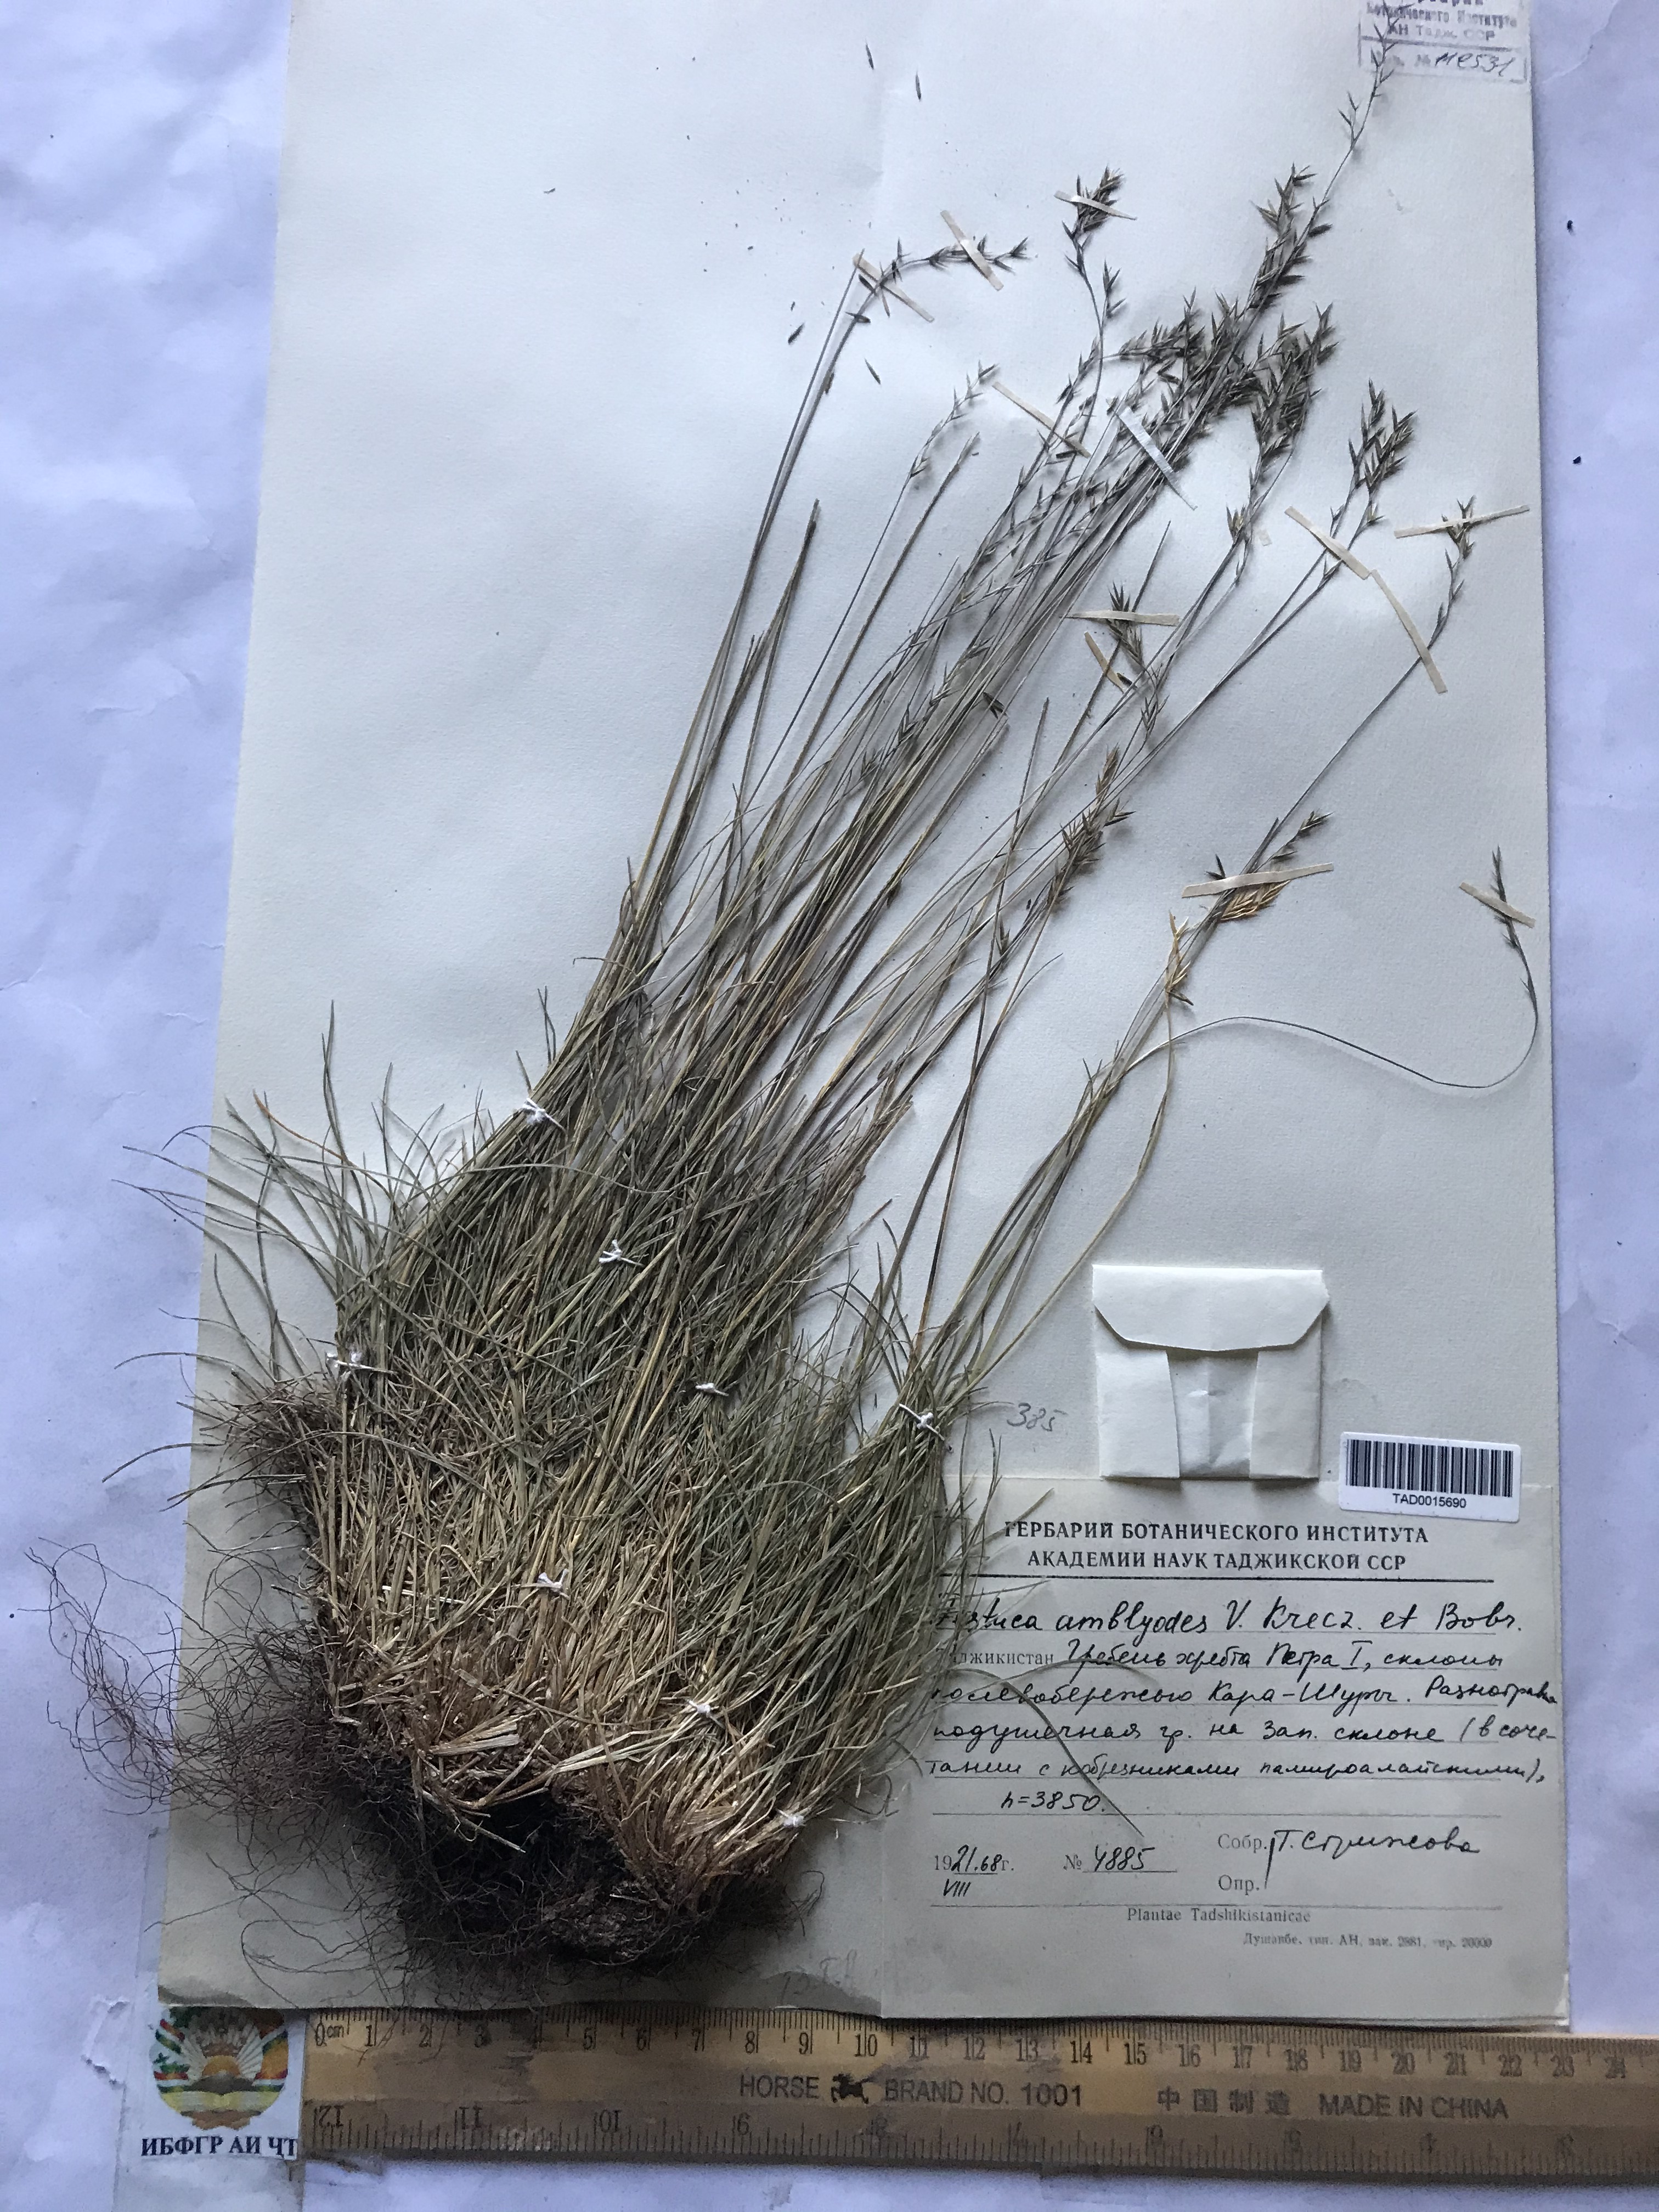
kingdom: Plantae
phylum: Tracheophyta
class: Liliopsida
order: Poales
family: Poaceae
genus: Festuca
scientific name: Festuca amblyodes
